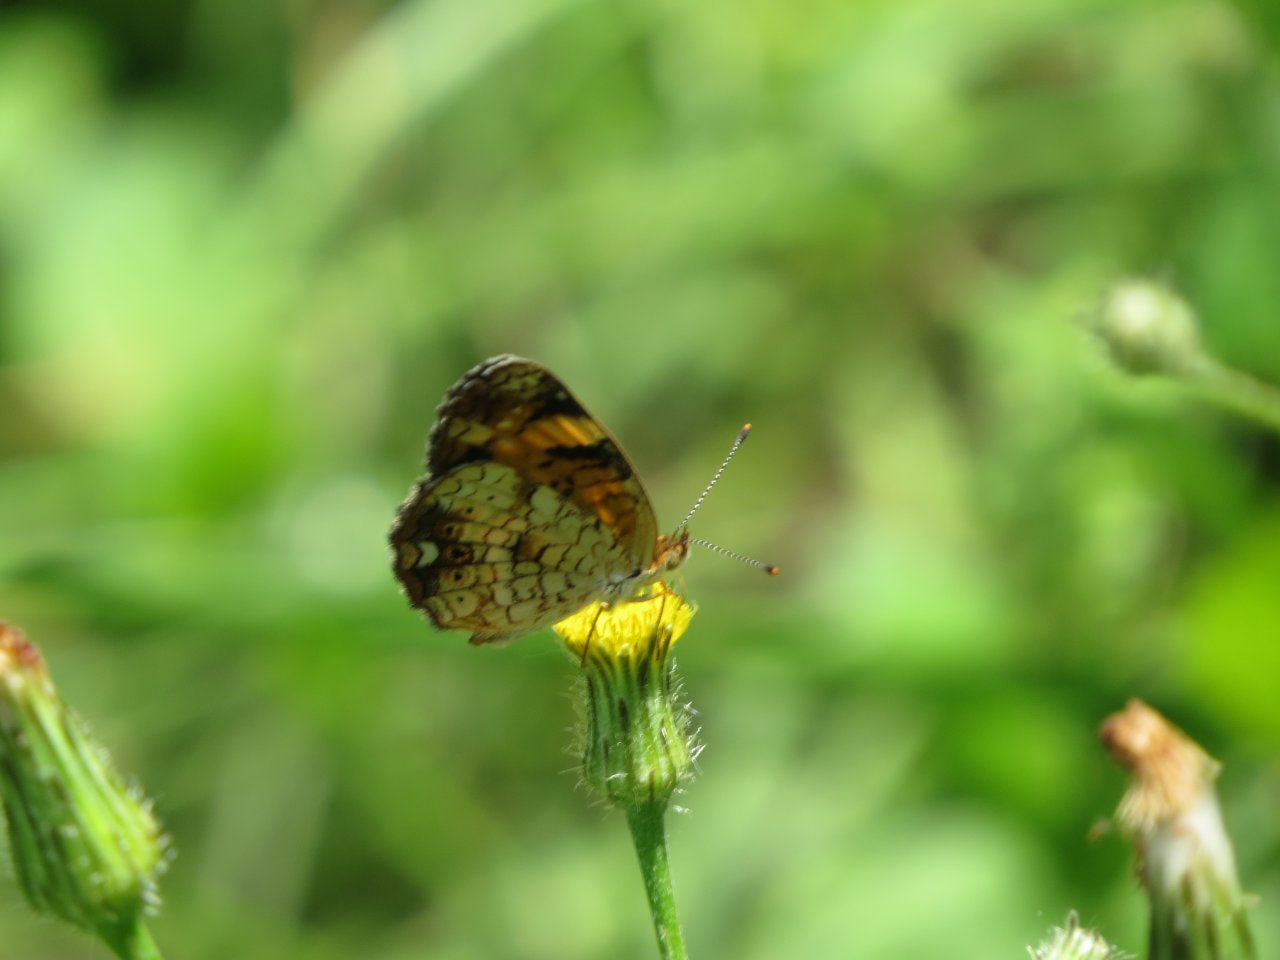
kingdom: Animalia
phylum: Arthropoda
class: Insecta
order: Lepidoptera
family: Nymphalidae
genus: Phyciodes
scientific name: Phyciodes tharos
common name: Pearl Crescent
